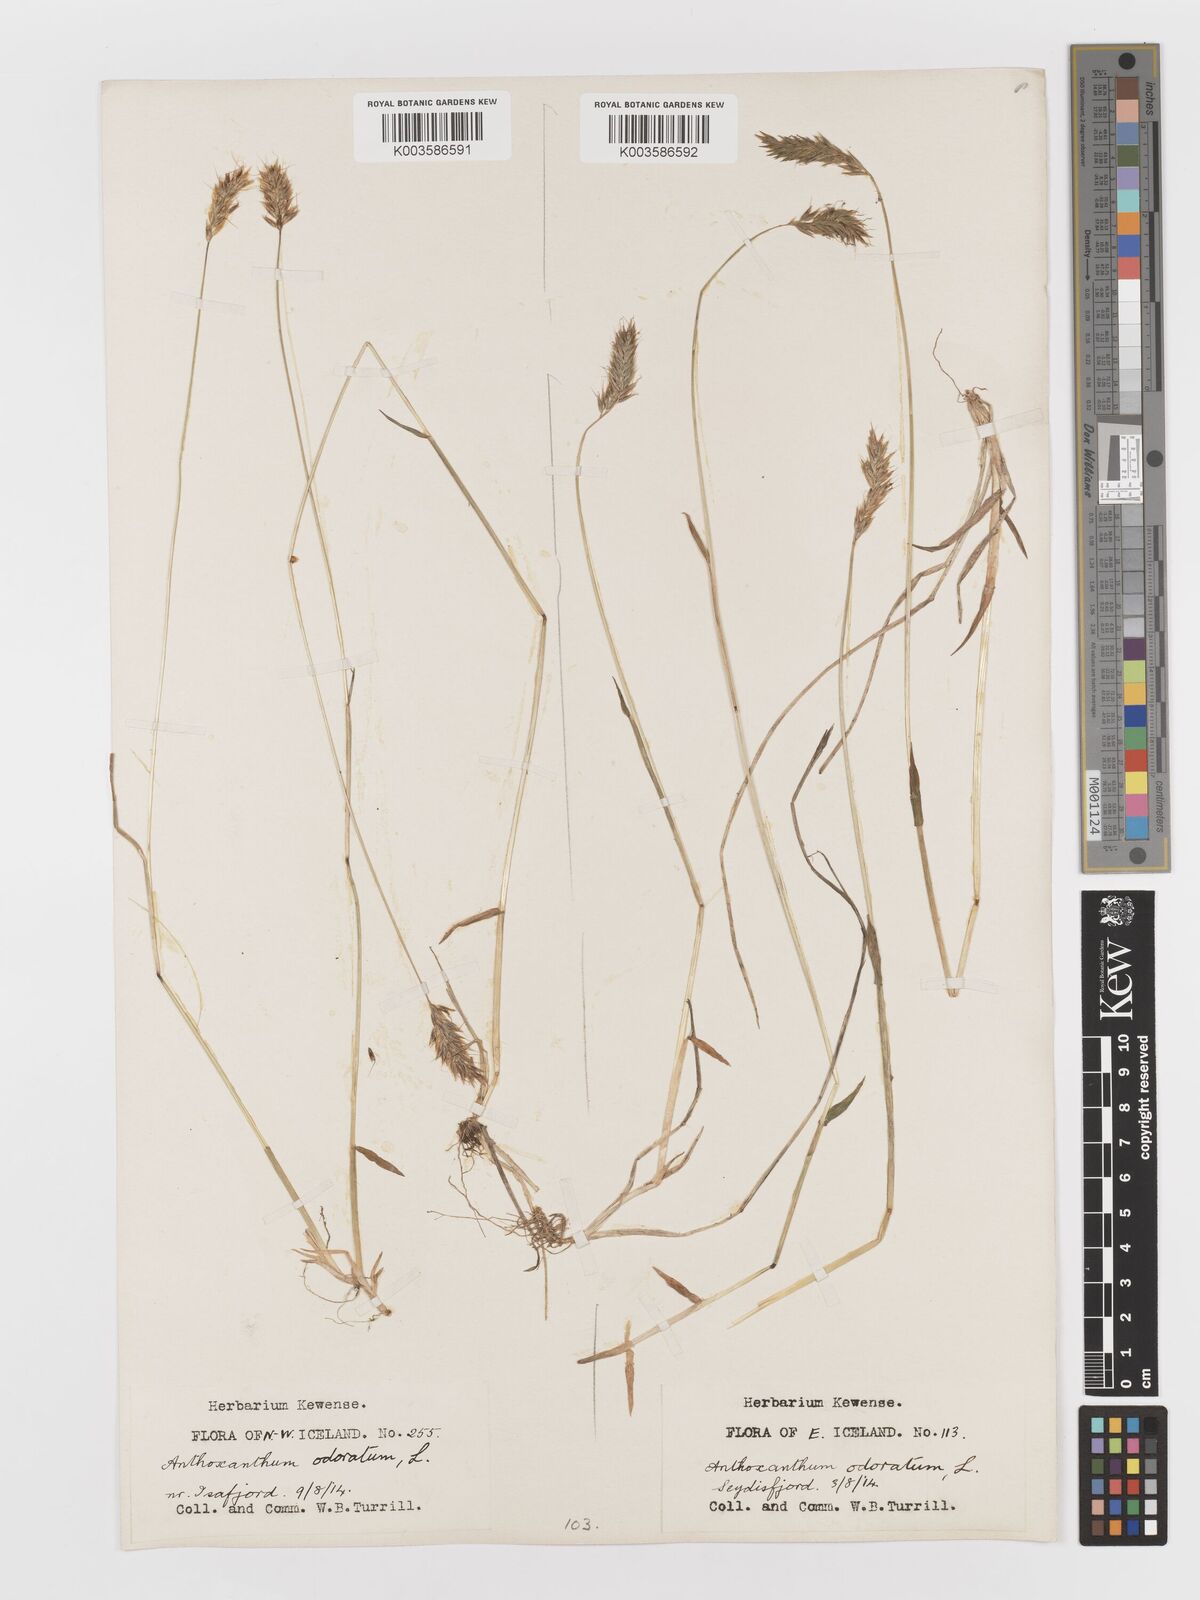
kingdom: Plantae
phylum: Tracheophyta
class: Liliopsida
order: Poales
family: Poaceae
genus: Anthoxanthum
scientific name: Anthoxanthum odoratum
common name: Sweet vernalgrass
